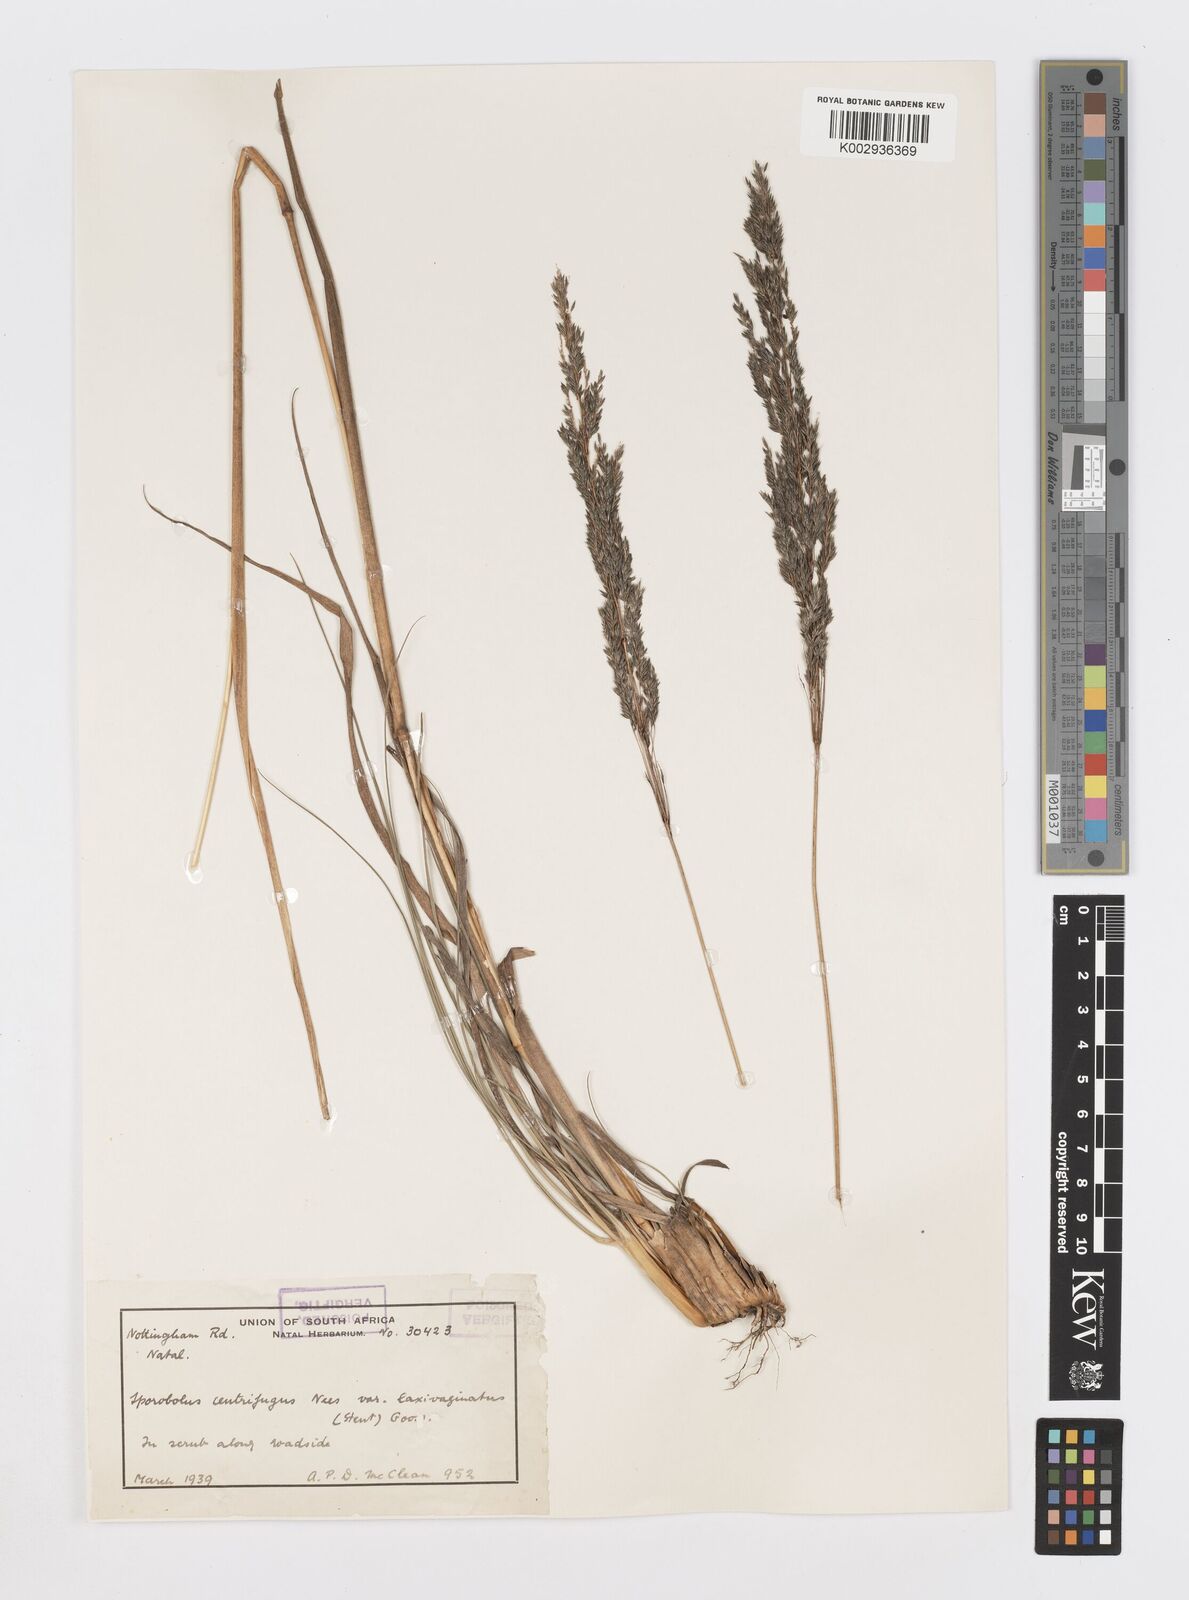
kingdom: Plantae
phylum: Tracheophyta
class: Liliopsida
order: Poales
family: Poaceae
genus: Sporobolus
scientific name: Sporobolus centrifugus
